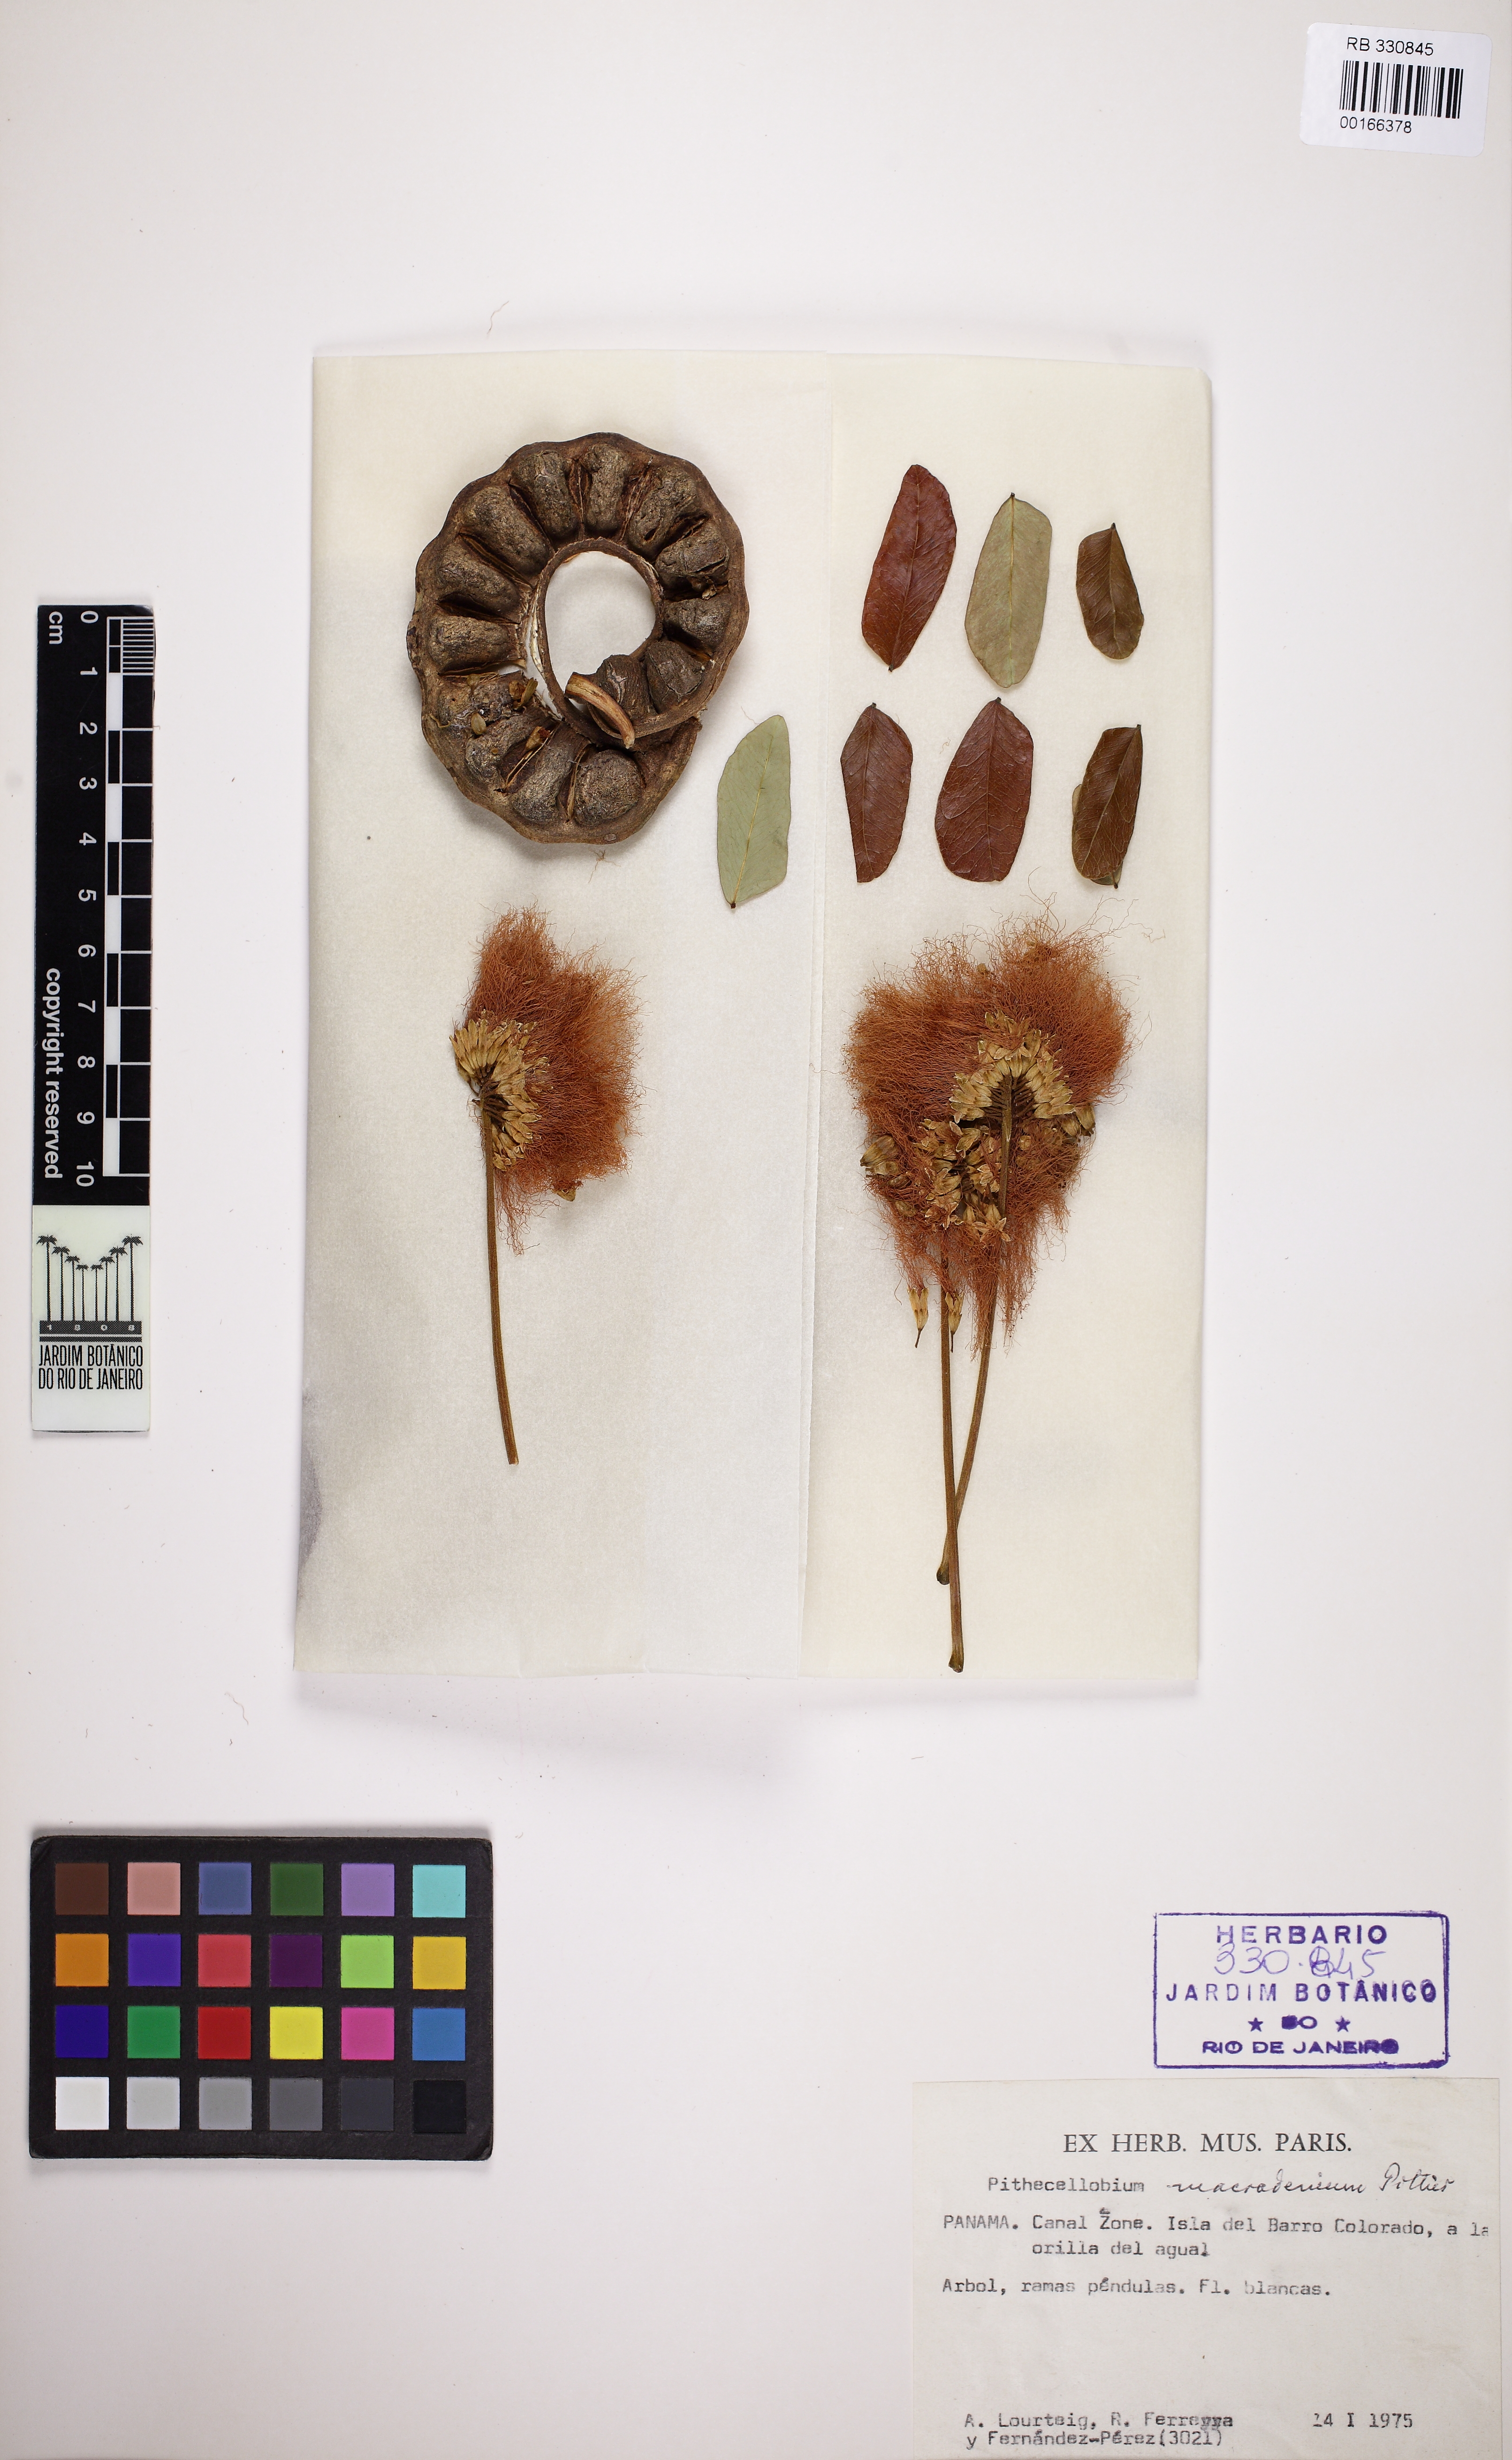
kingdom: Plantae
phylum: Tracheophyta
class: Magnoliopsida
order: Fabales
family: Fabaceae
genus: Jupunba
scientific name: Jupunba macradenia
